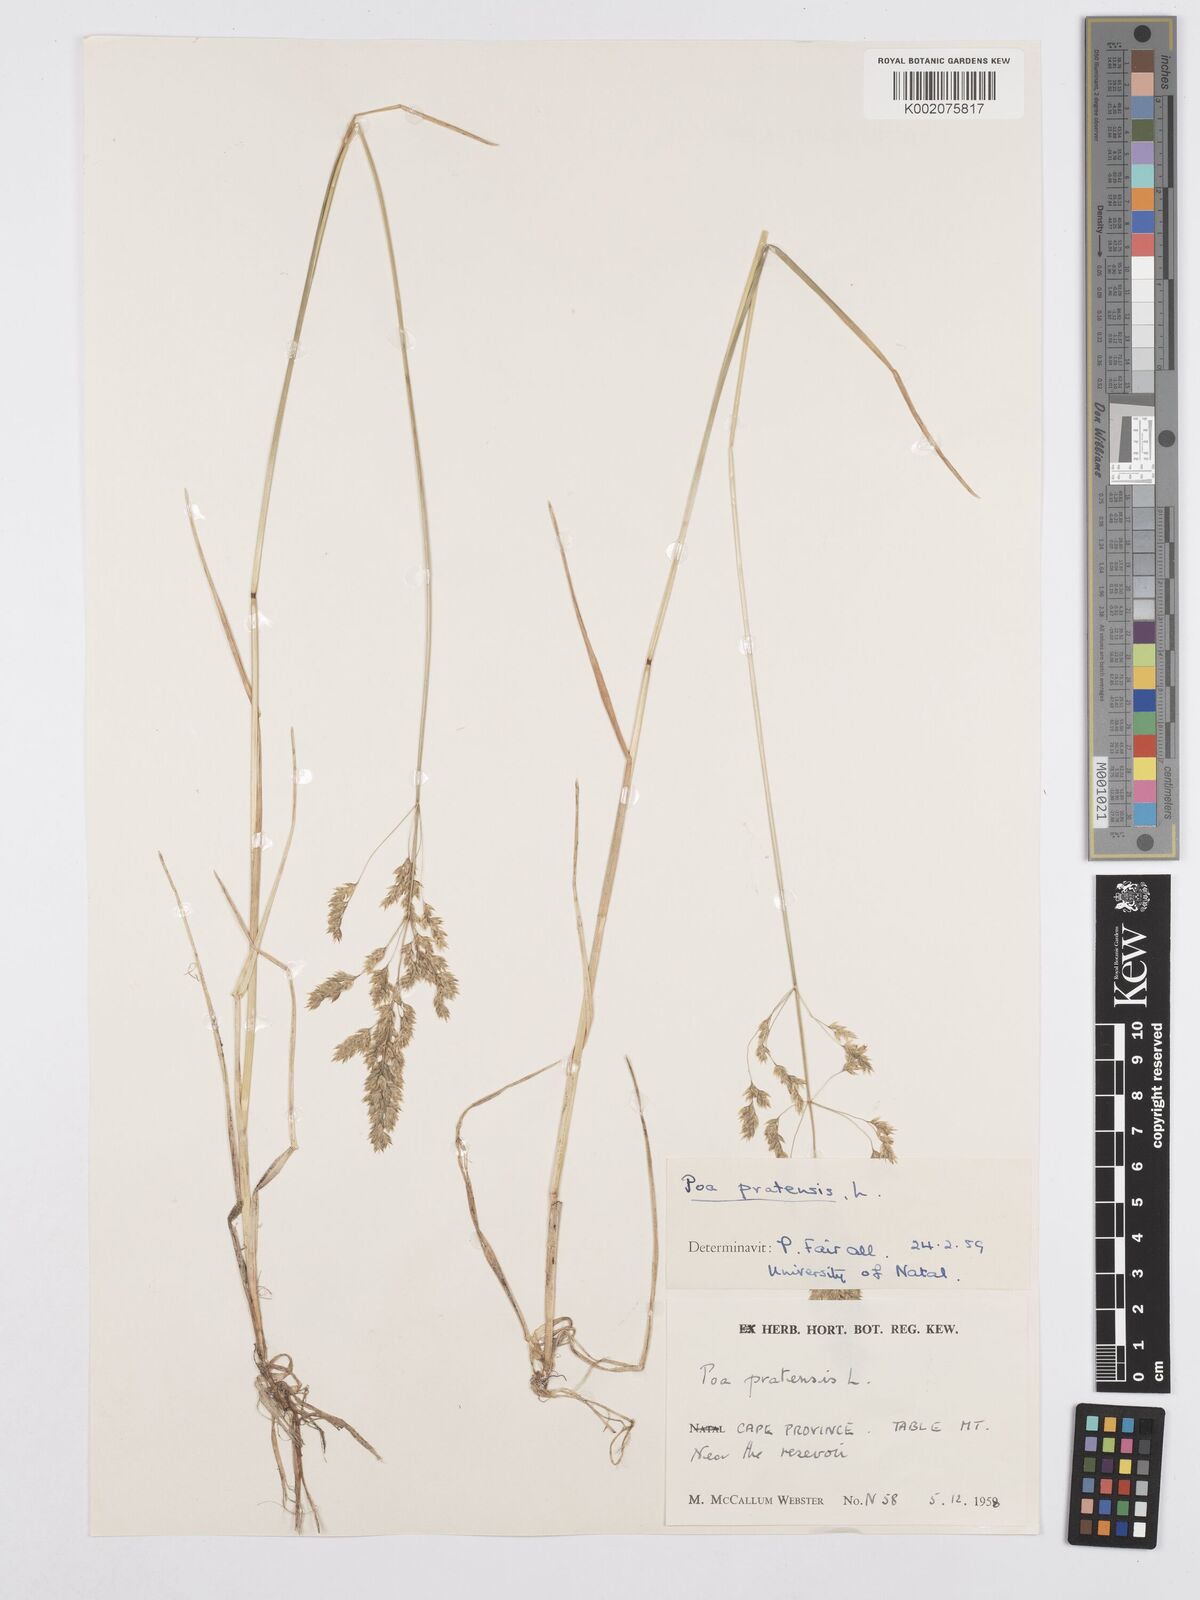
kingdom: Plantae
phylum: Tracheophyta
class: Liliopsida
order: Poales
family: Poaceae
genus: Poa
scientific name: Poa pratensis
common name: Kentucky bluegrass
